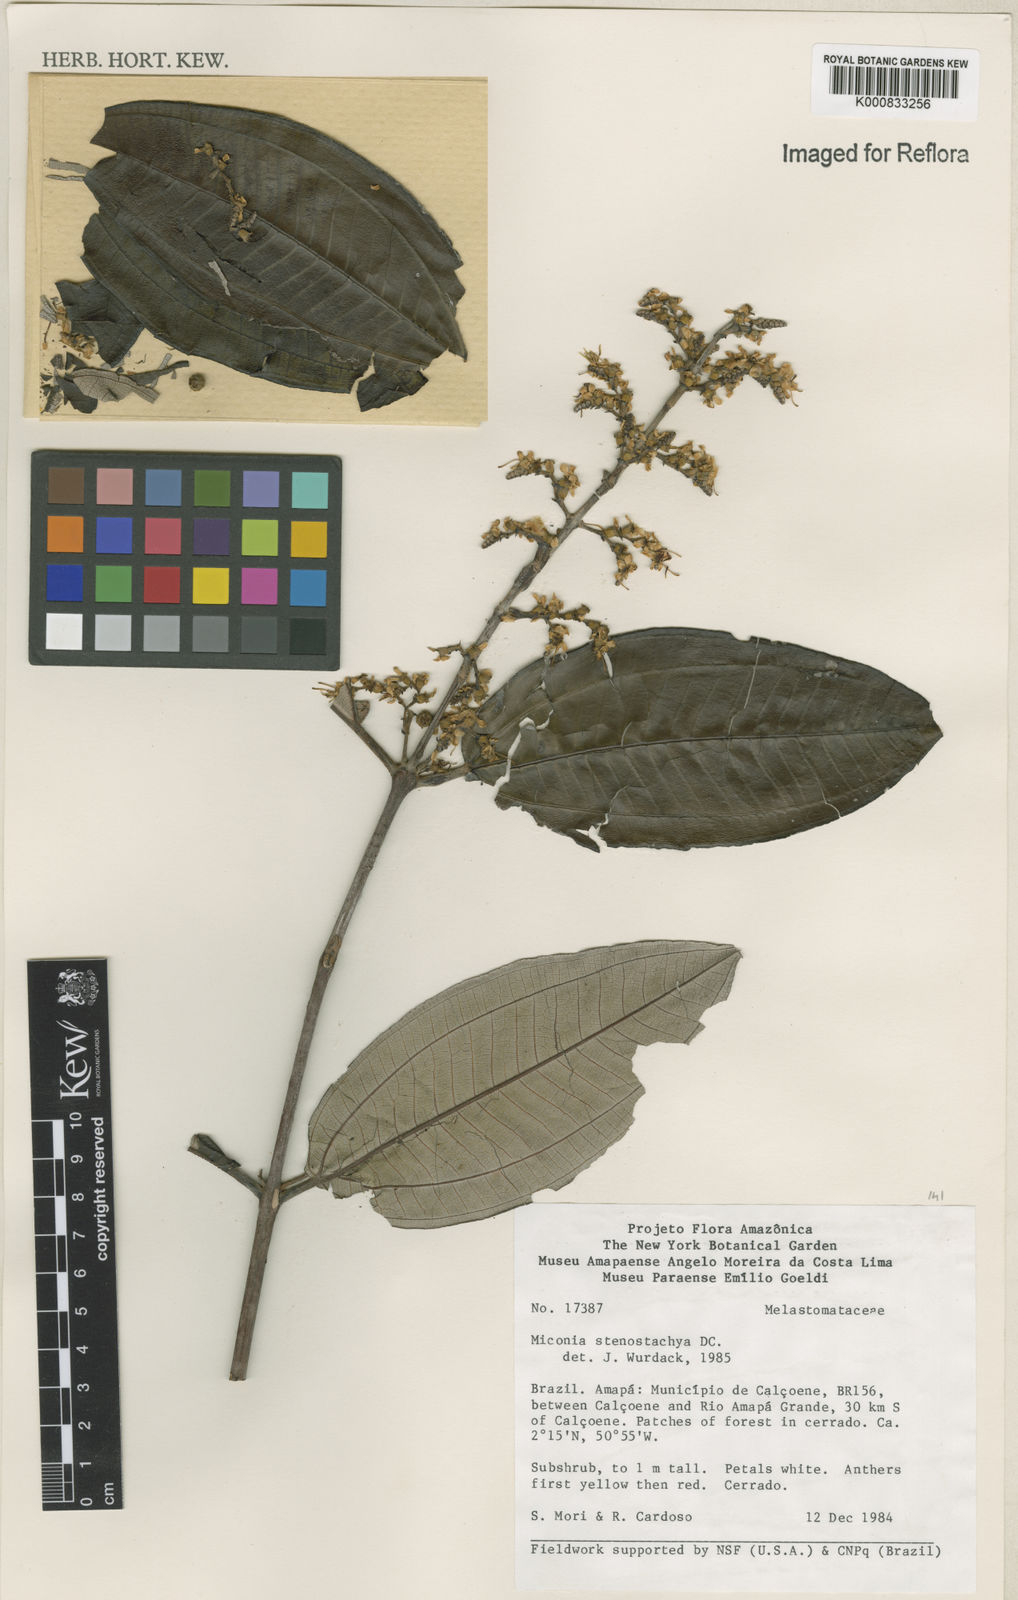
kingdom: Plantae
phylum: Tracheophyta
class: Magnoliopsida
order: Myrtales
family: Melastomataceae
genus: Miconia
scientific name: Miconia stenostachya
